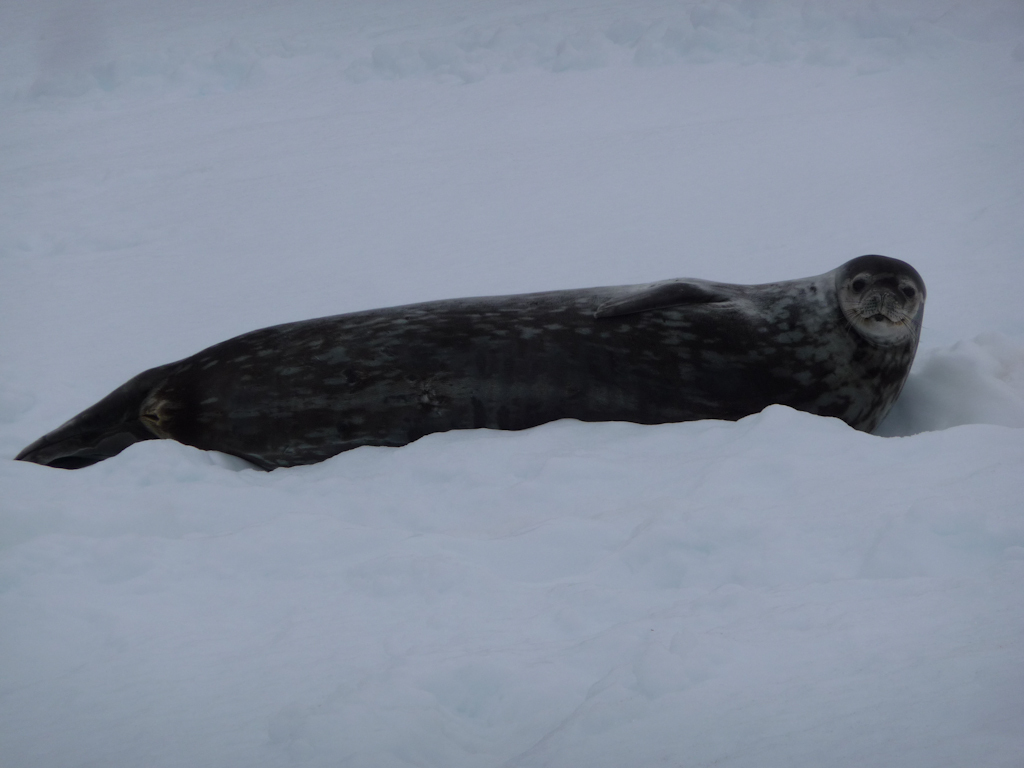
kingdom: Animalia
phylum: Chordata
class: Mammalia
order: Carnivora
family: Phocidae
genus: Leptonychotes
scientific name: Leptonychotes weddellii
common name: Weddell Seal
